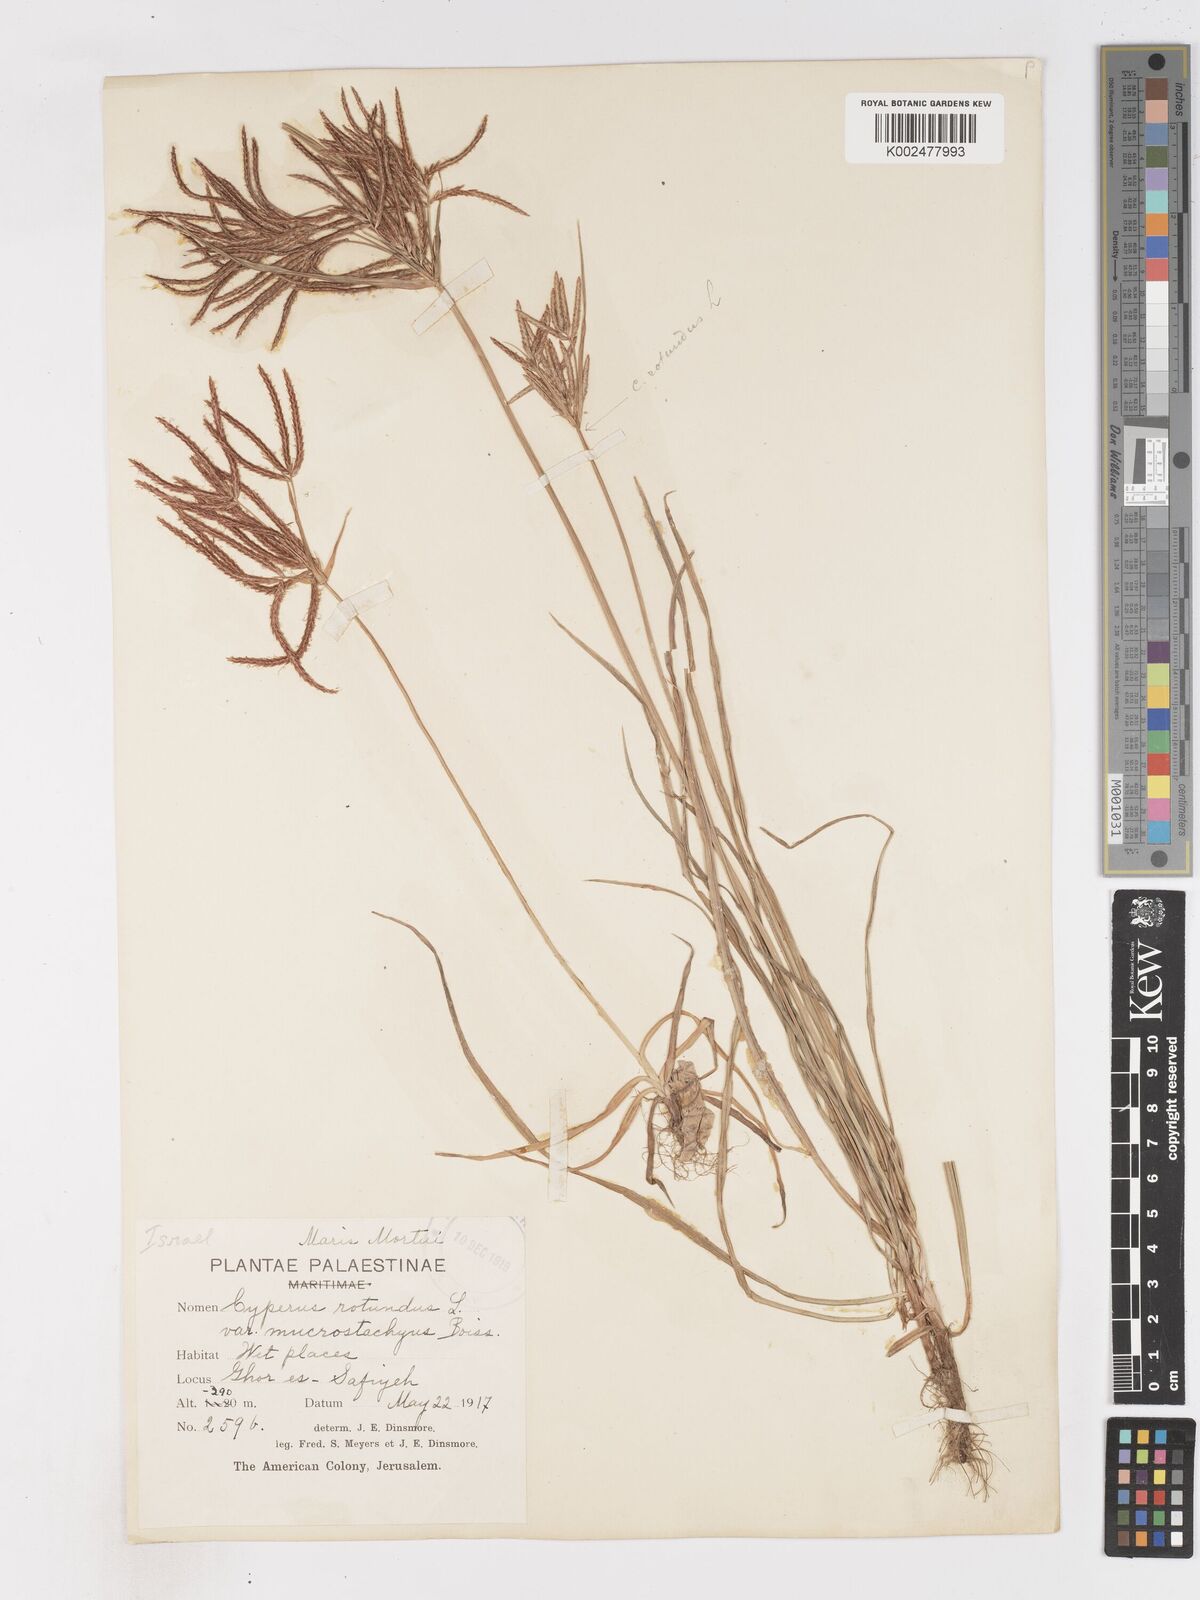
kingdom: Plantae
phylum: Tracheophyta
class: Liliopsida
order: Poales
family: Cyperaceae
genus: Cyperus
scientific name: Cyperus rotundus
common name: Nutgrass
